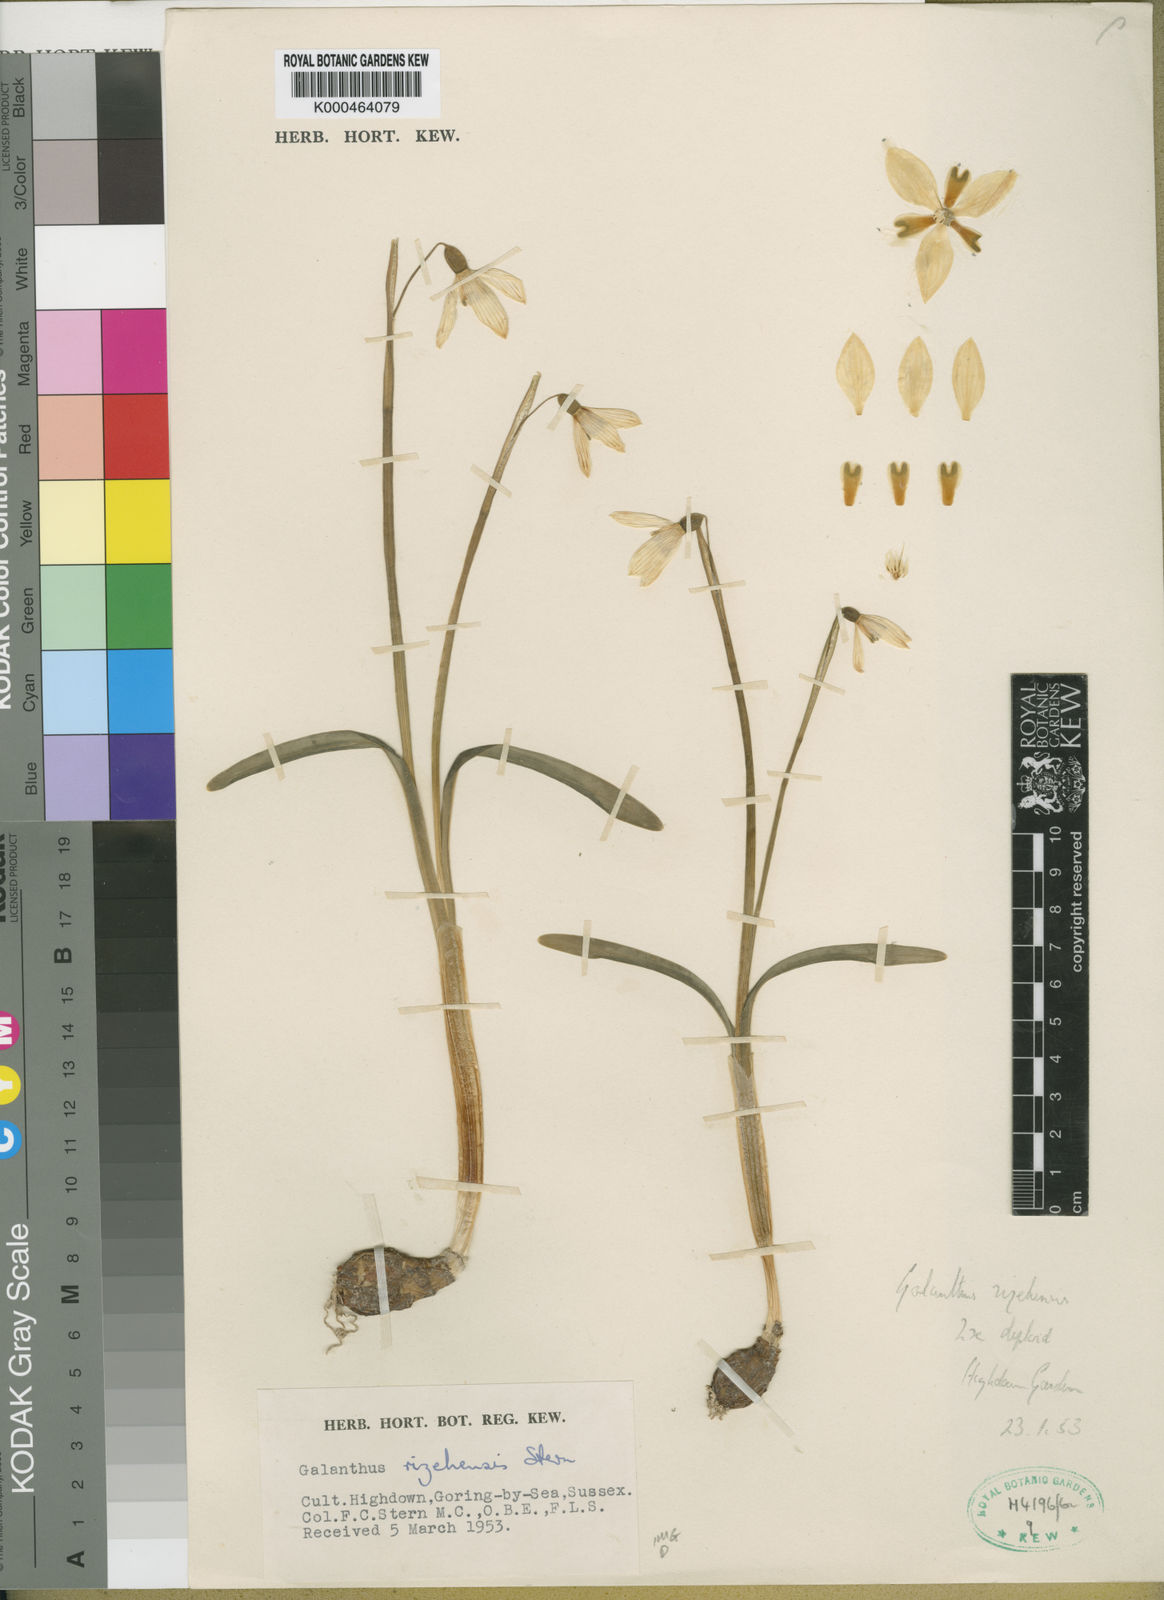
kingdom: Plantae
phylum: Tracheophyta
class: Liliopsida
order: Asparagales
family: Amaryllidaceae
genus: Galanthus
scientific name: Galanthus rizehensis
